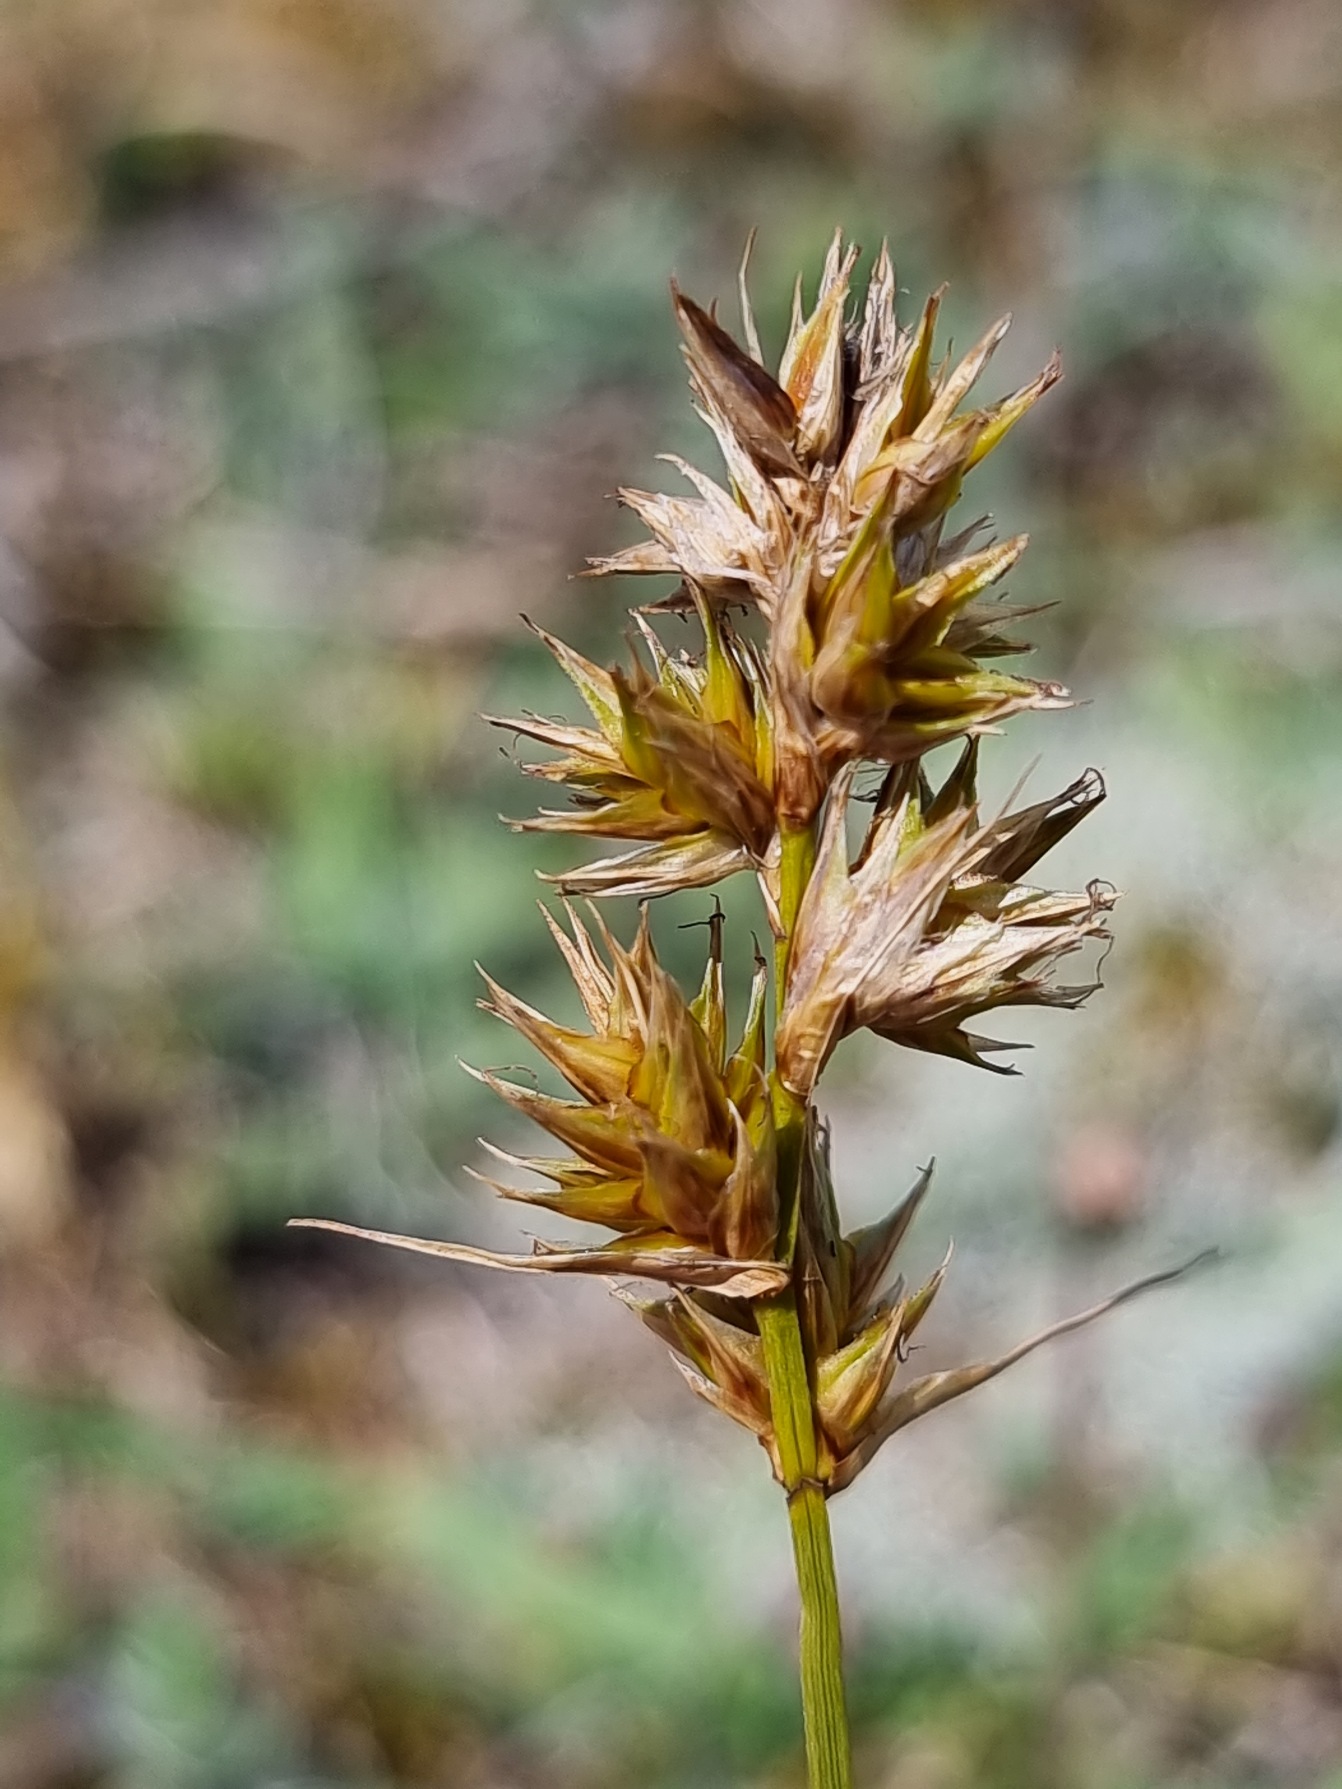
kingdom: Plantae
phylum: Tracheophyta
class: Liliopsida
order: Poales
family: Cyperaceae
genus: Carex
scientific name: Carex arenaria
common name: Sand-star
